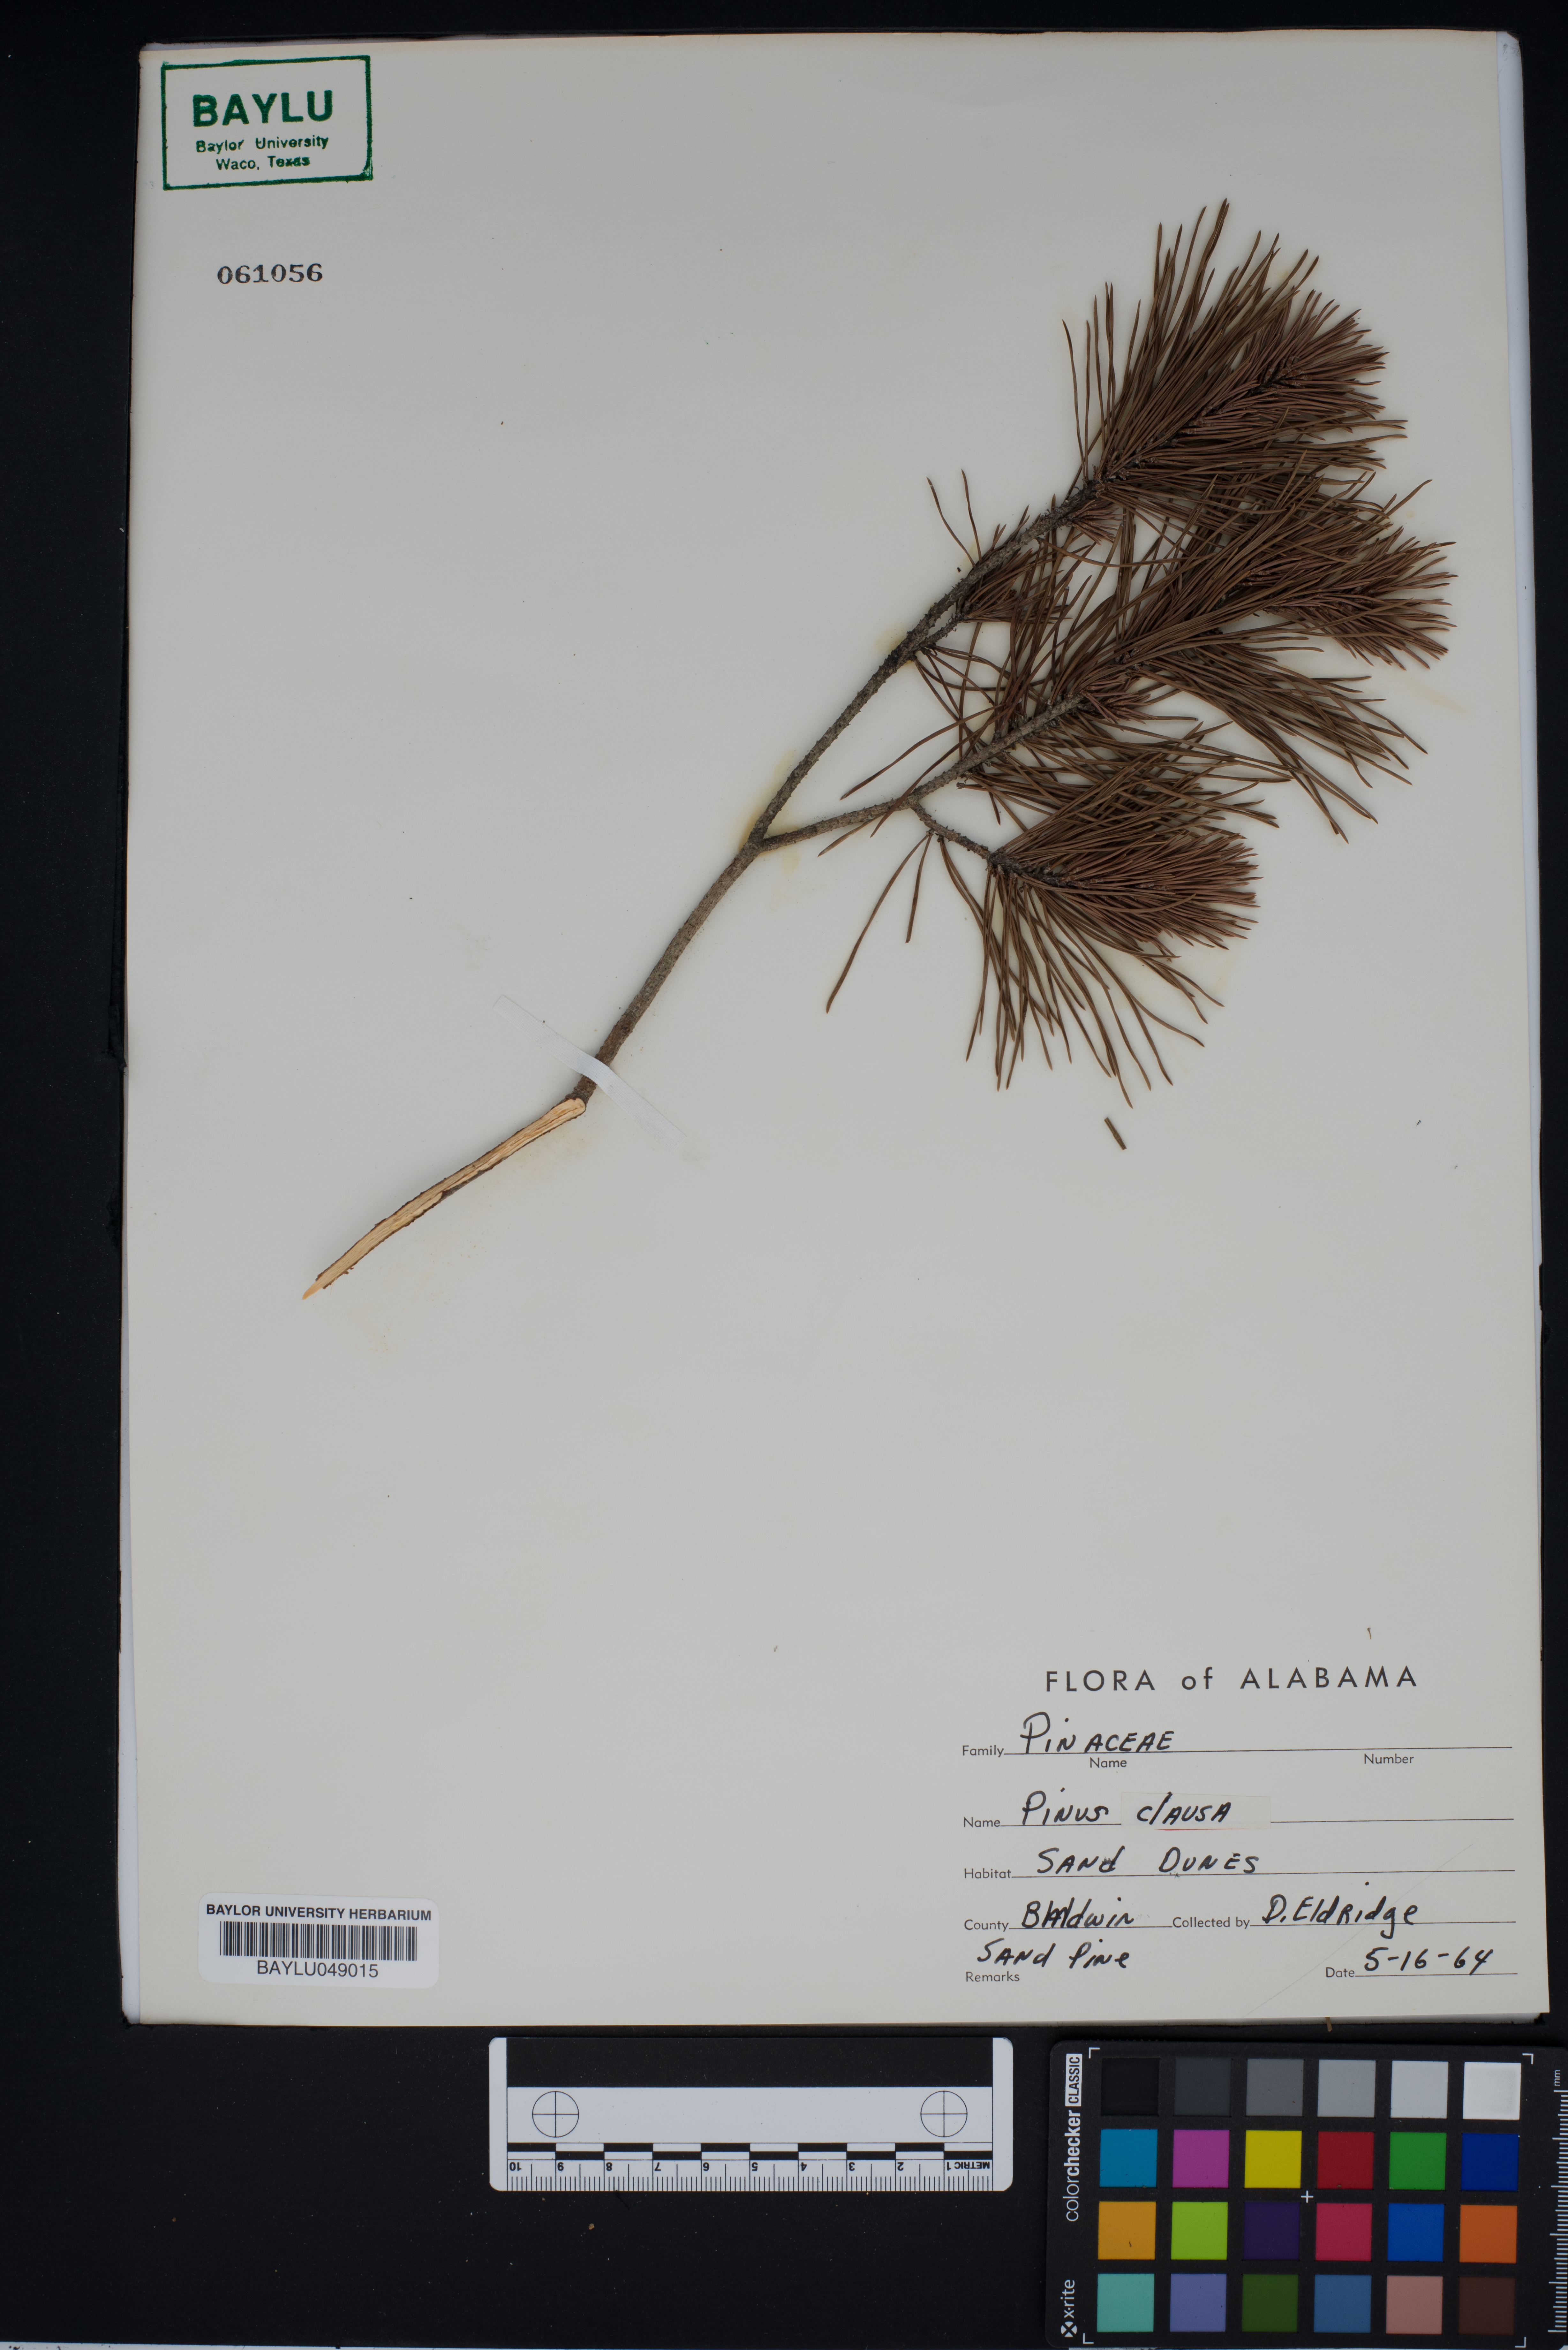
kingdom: Plantae
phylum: Tracheophyta
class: Pinopsida
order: Pinales
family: Pinaceae
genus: Pinus
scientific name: Pinus clausa
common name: Sand pine
